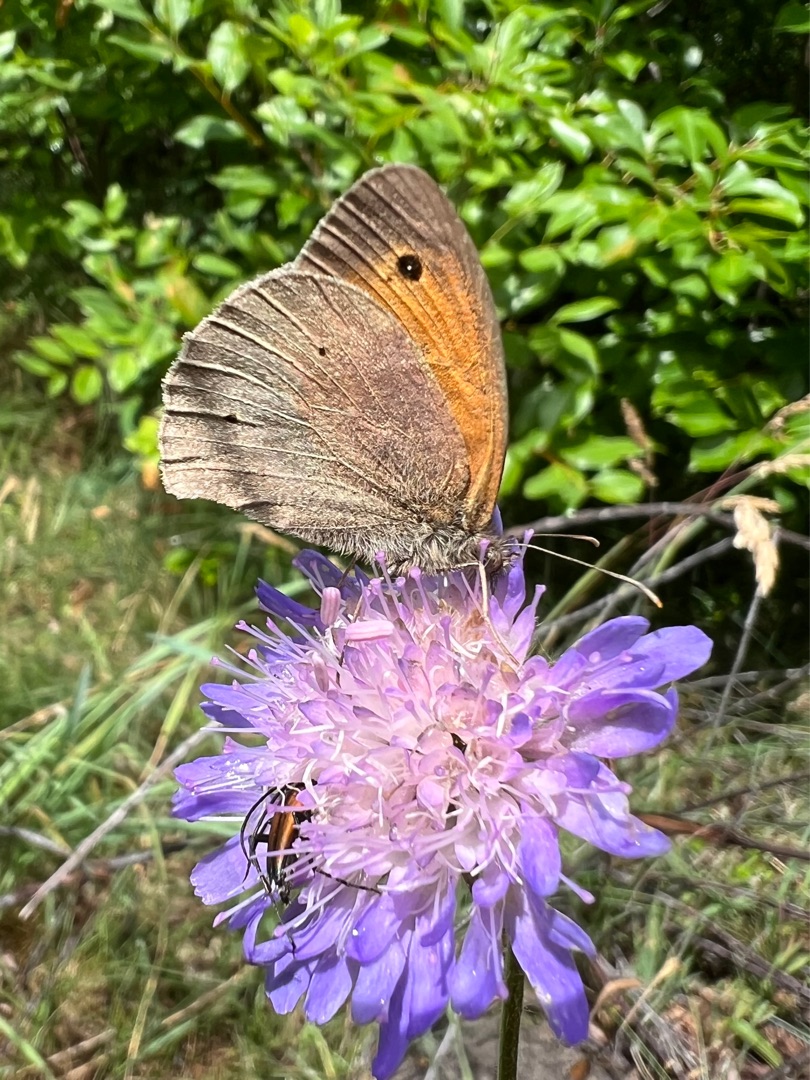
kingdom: Animalia
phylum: Arthropoda
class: Insecta
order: Lepidoptera
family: Nymphalidae
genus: Maniola
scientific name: Maniola jurtina
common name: Græsrandøje
